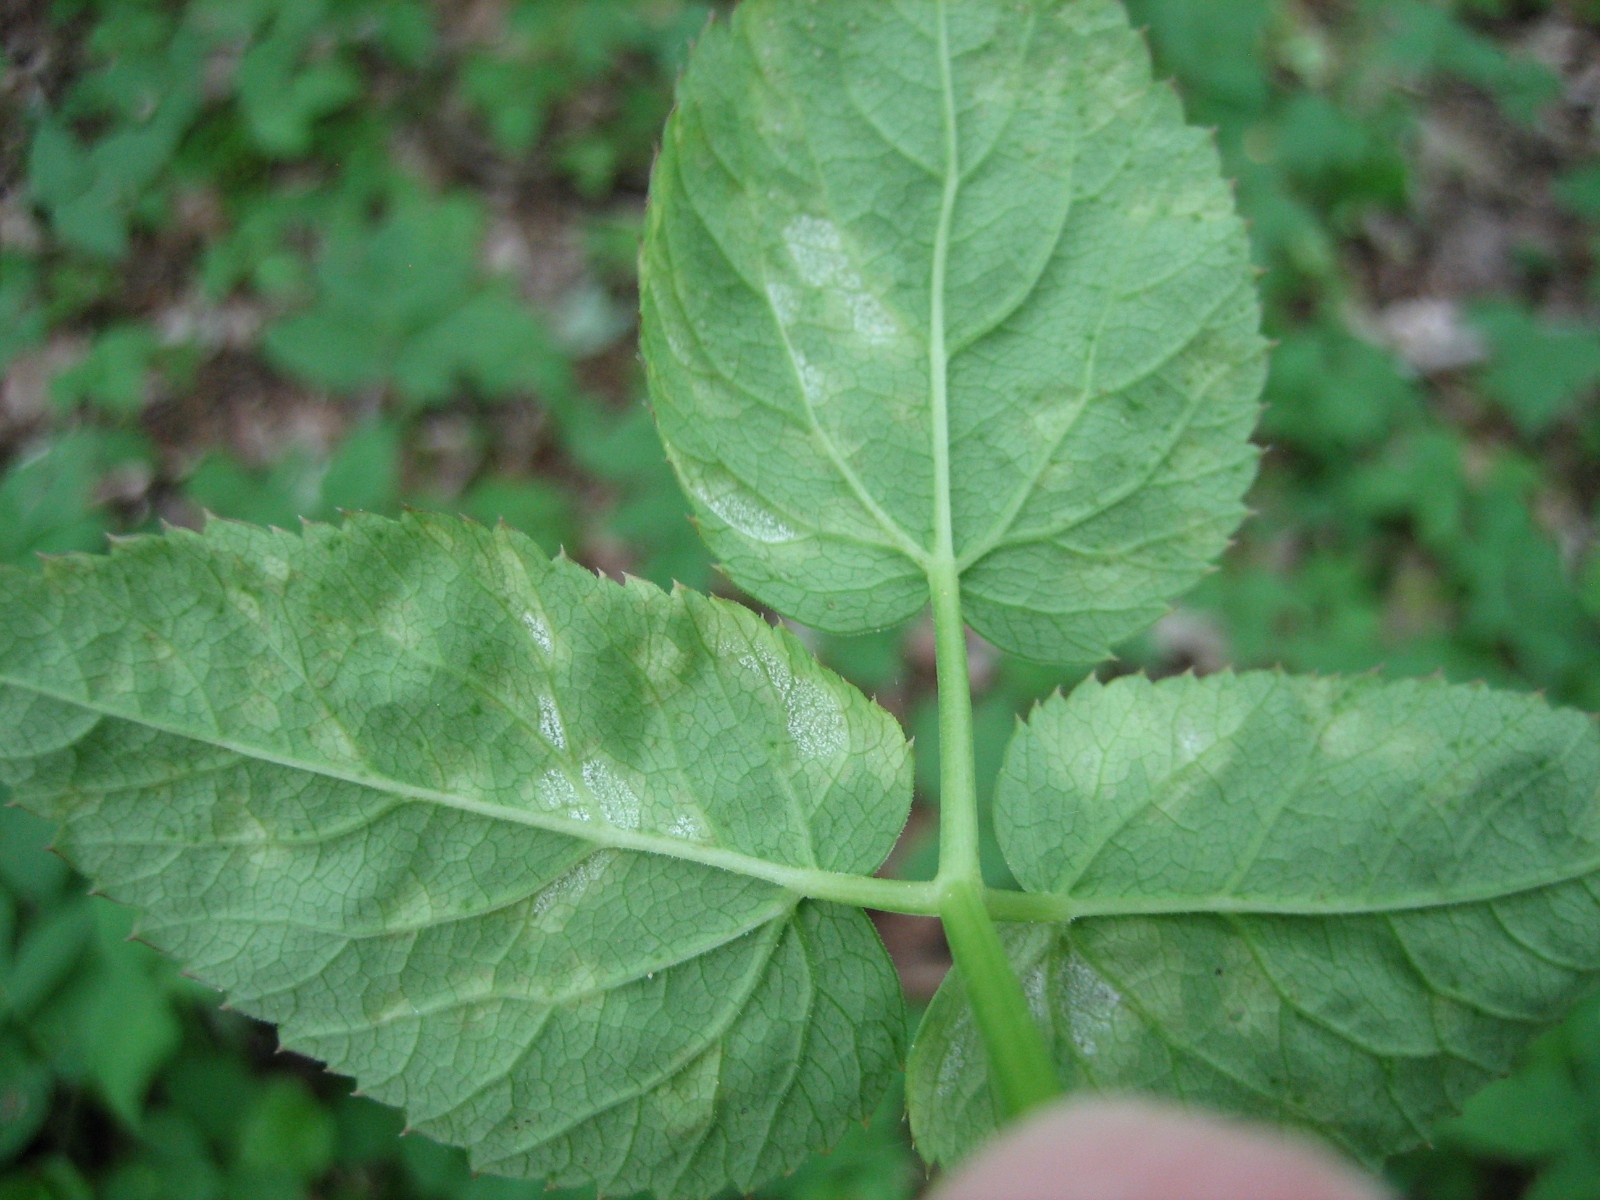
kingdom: Chromista
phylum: Oomycota
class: Peronosporea
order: Peronosporales
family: Peronosporaceae
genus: Peronospora
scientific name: Peronospora crustosa
